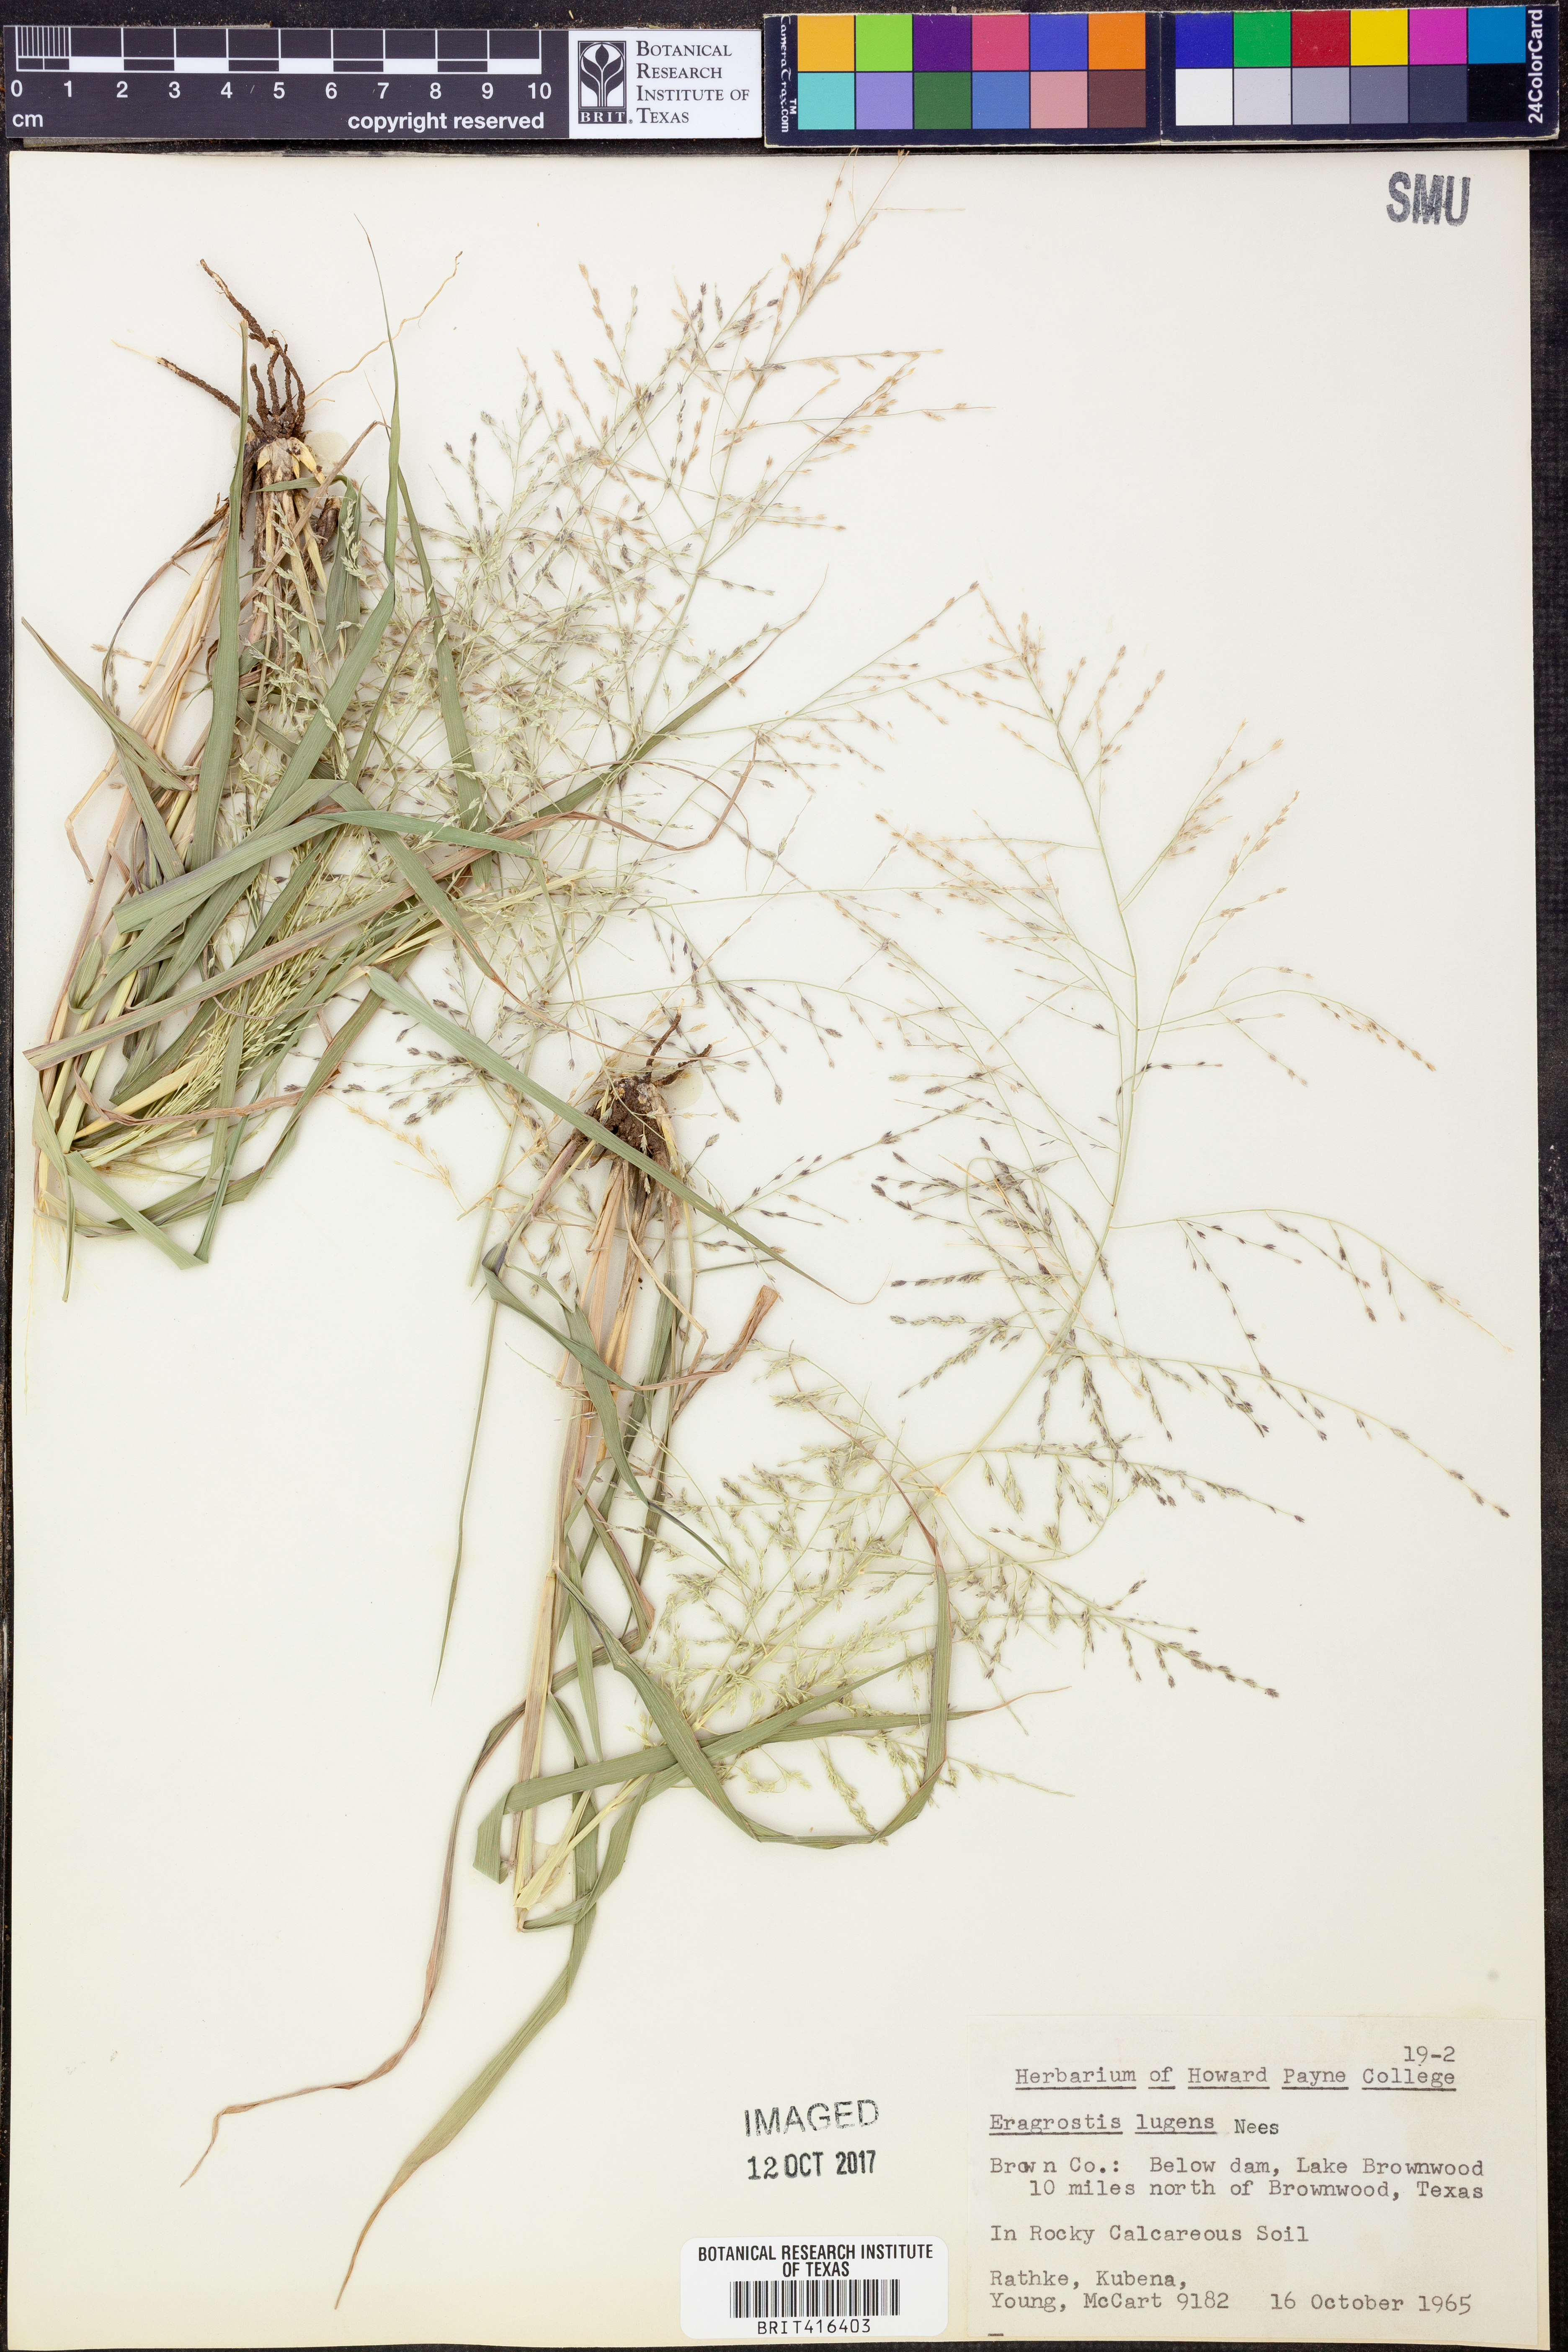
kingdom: Plantae
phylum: Tracheophyta
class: Liliopsida
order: Poales
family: Poaceae
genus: Eragrostis
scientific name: Eragrostis capillaris
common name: Hair-like lovegrass
